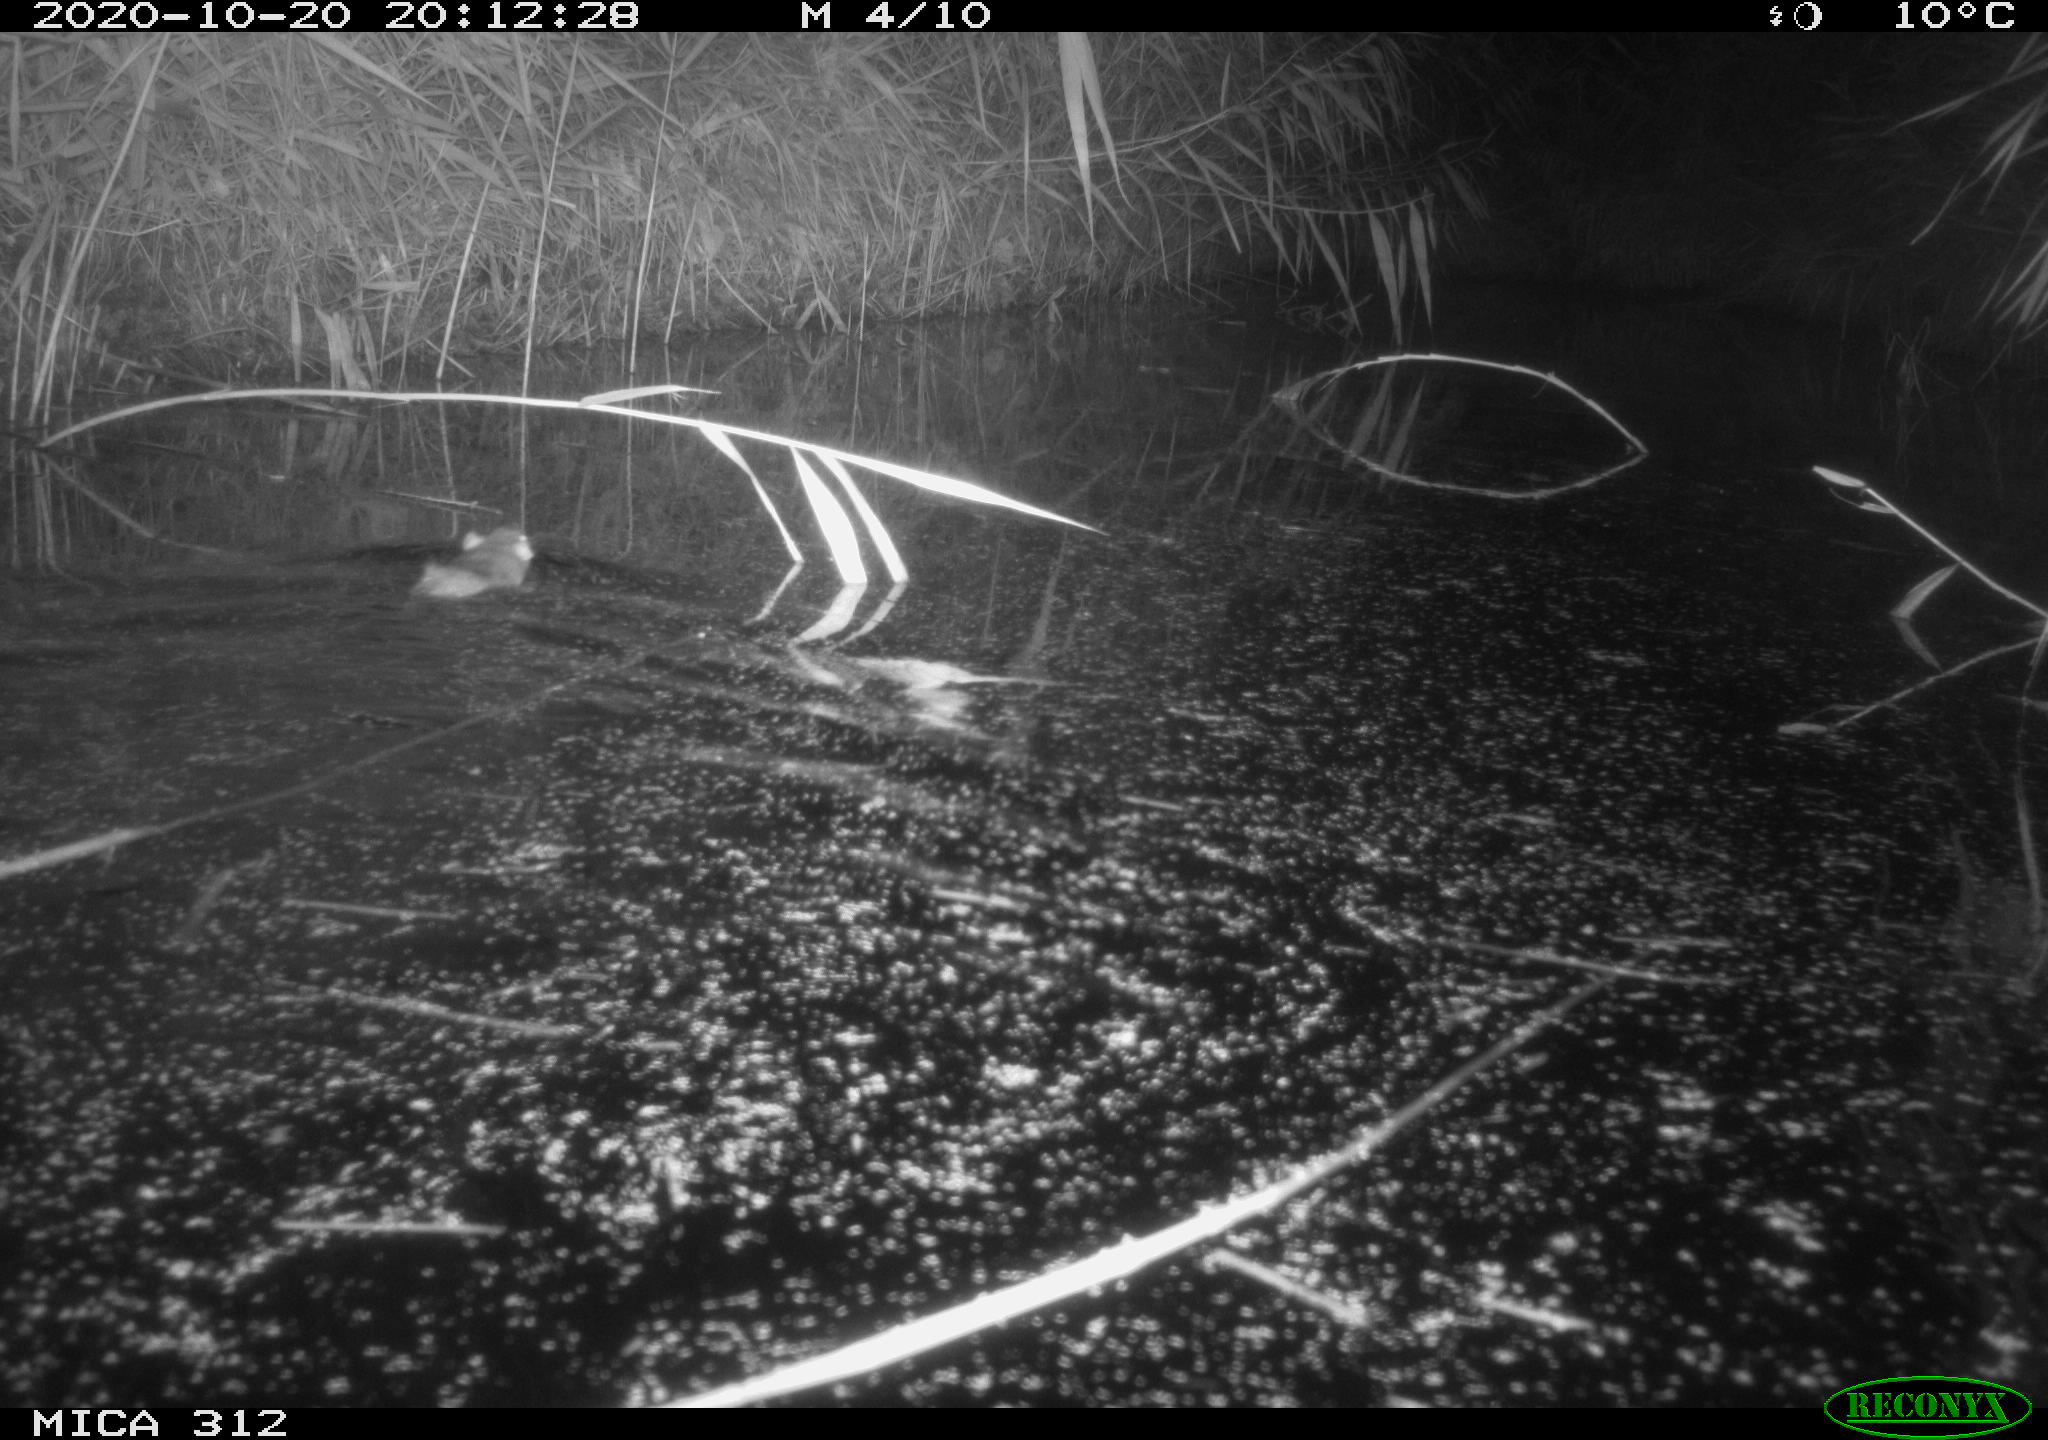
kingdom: Animalia
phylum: Chordata
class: Mammalia
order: Rodentia
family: Muridae
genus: Rattus
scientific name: Rattus norvegicus
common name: Brown rat
